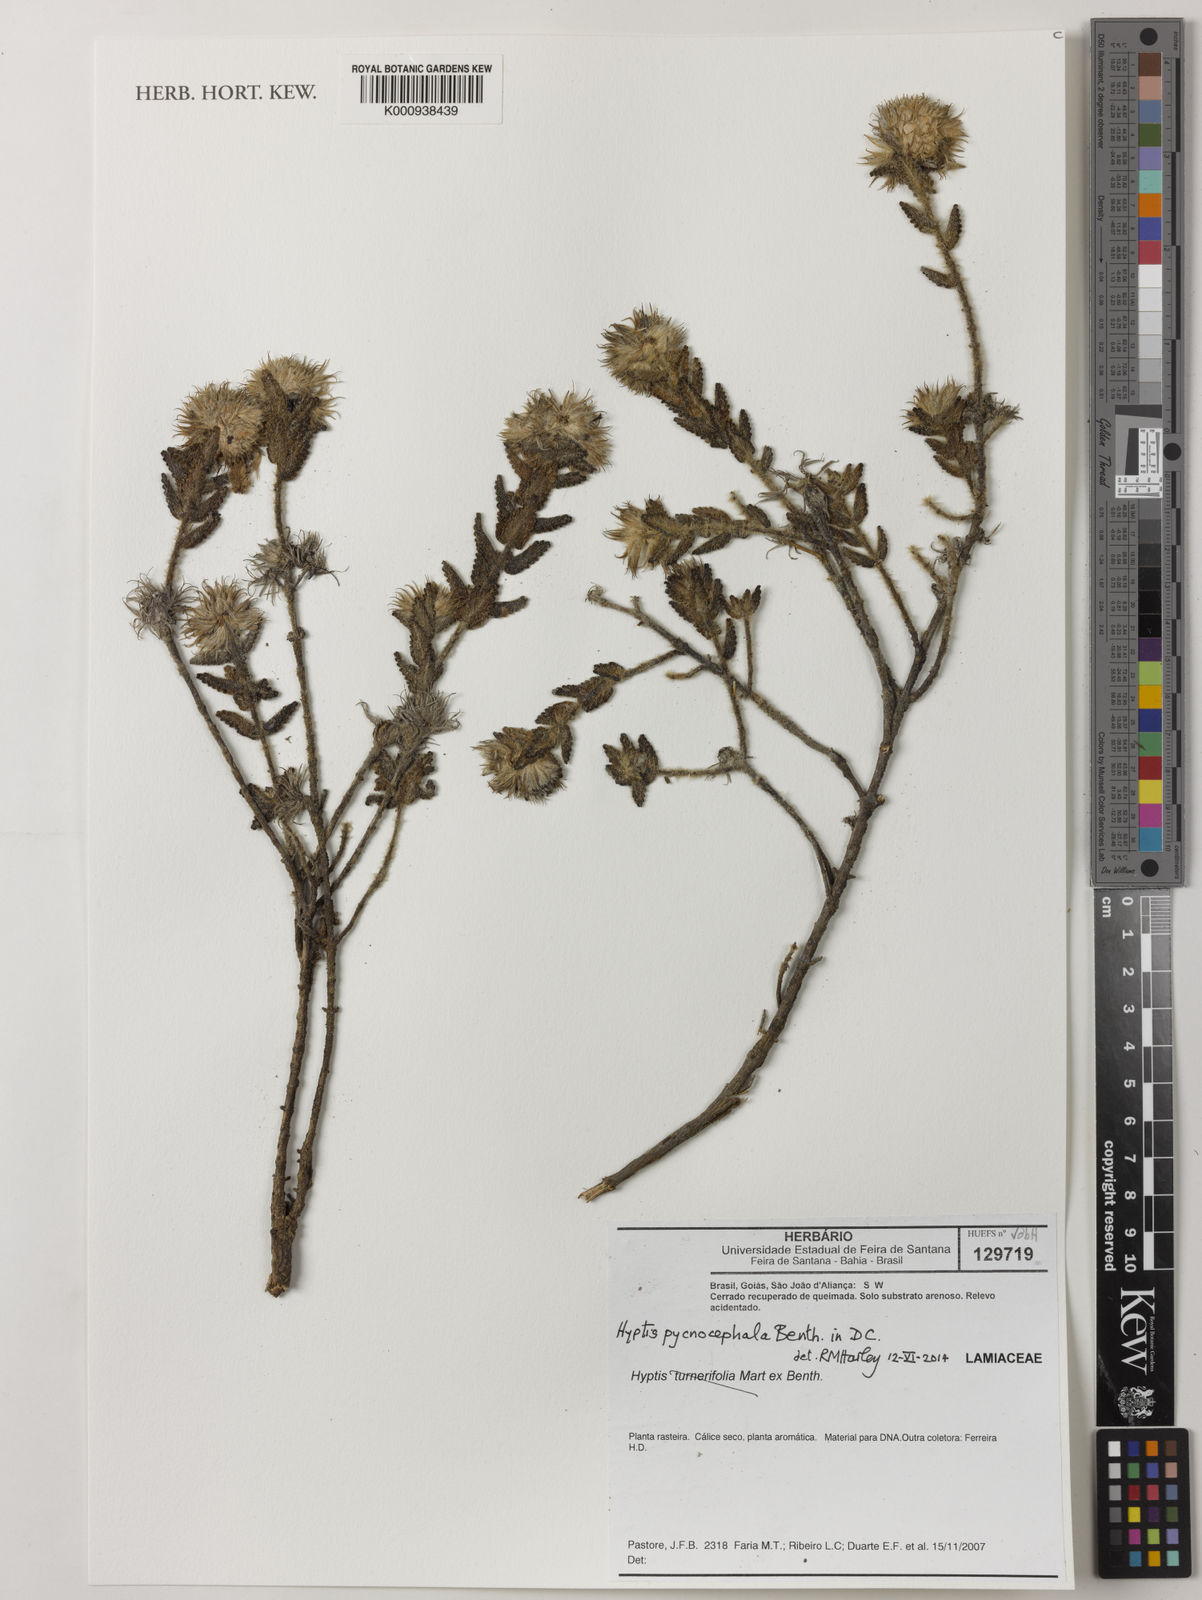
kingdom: Plantae
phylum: Tracheophyta
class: Magnoliopsida
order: Lamiales
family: Lamiaceae
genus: Hyptis
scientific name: Hyptis pycnocephala
